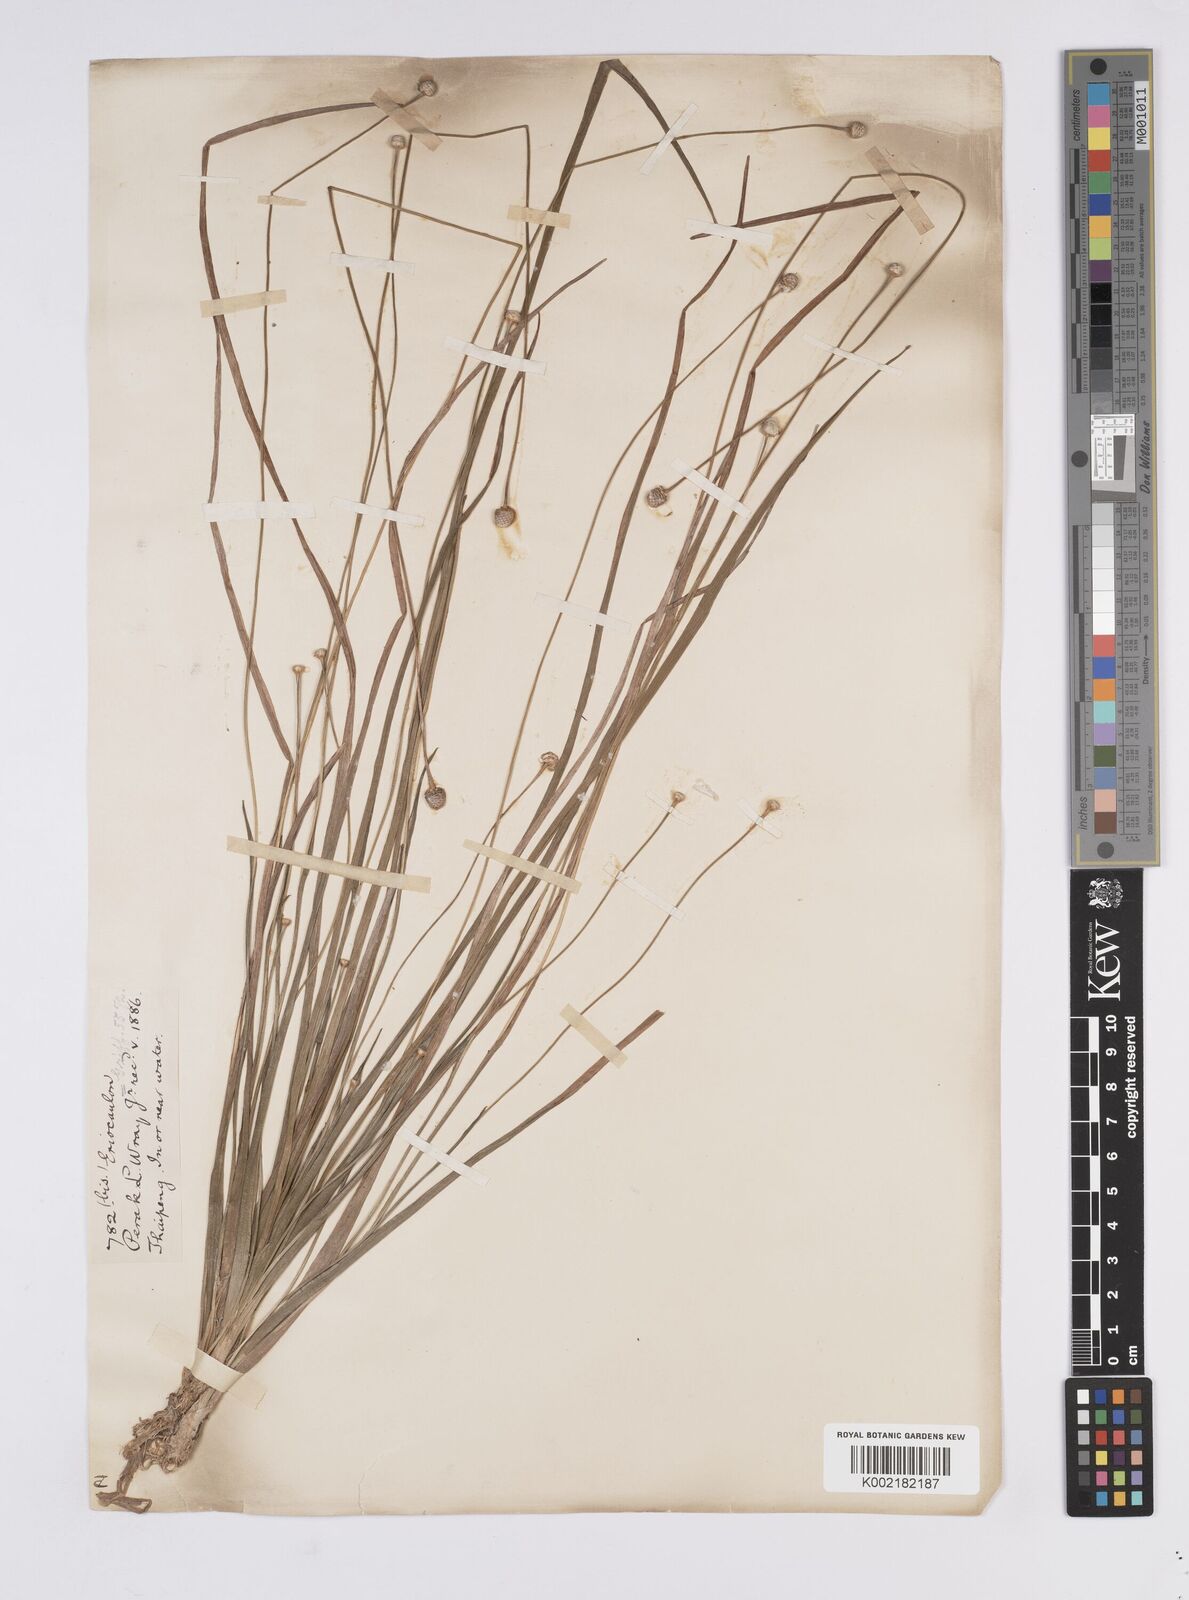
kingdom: Plantae
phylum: Tracheophyta
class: Liliopsida
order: Poales
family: Eriocaulaceae
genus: Eriocaulon
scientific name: Eriocaulon sexangulare
